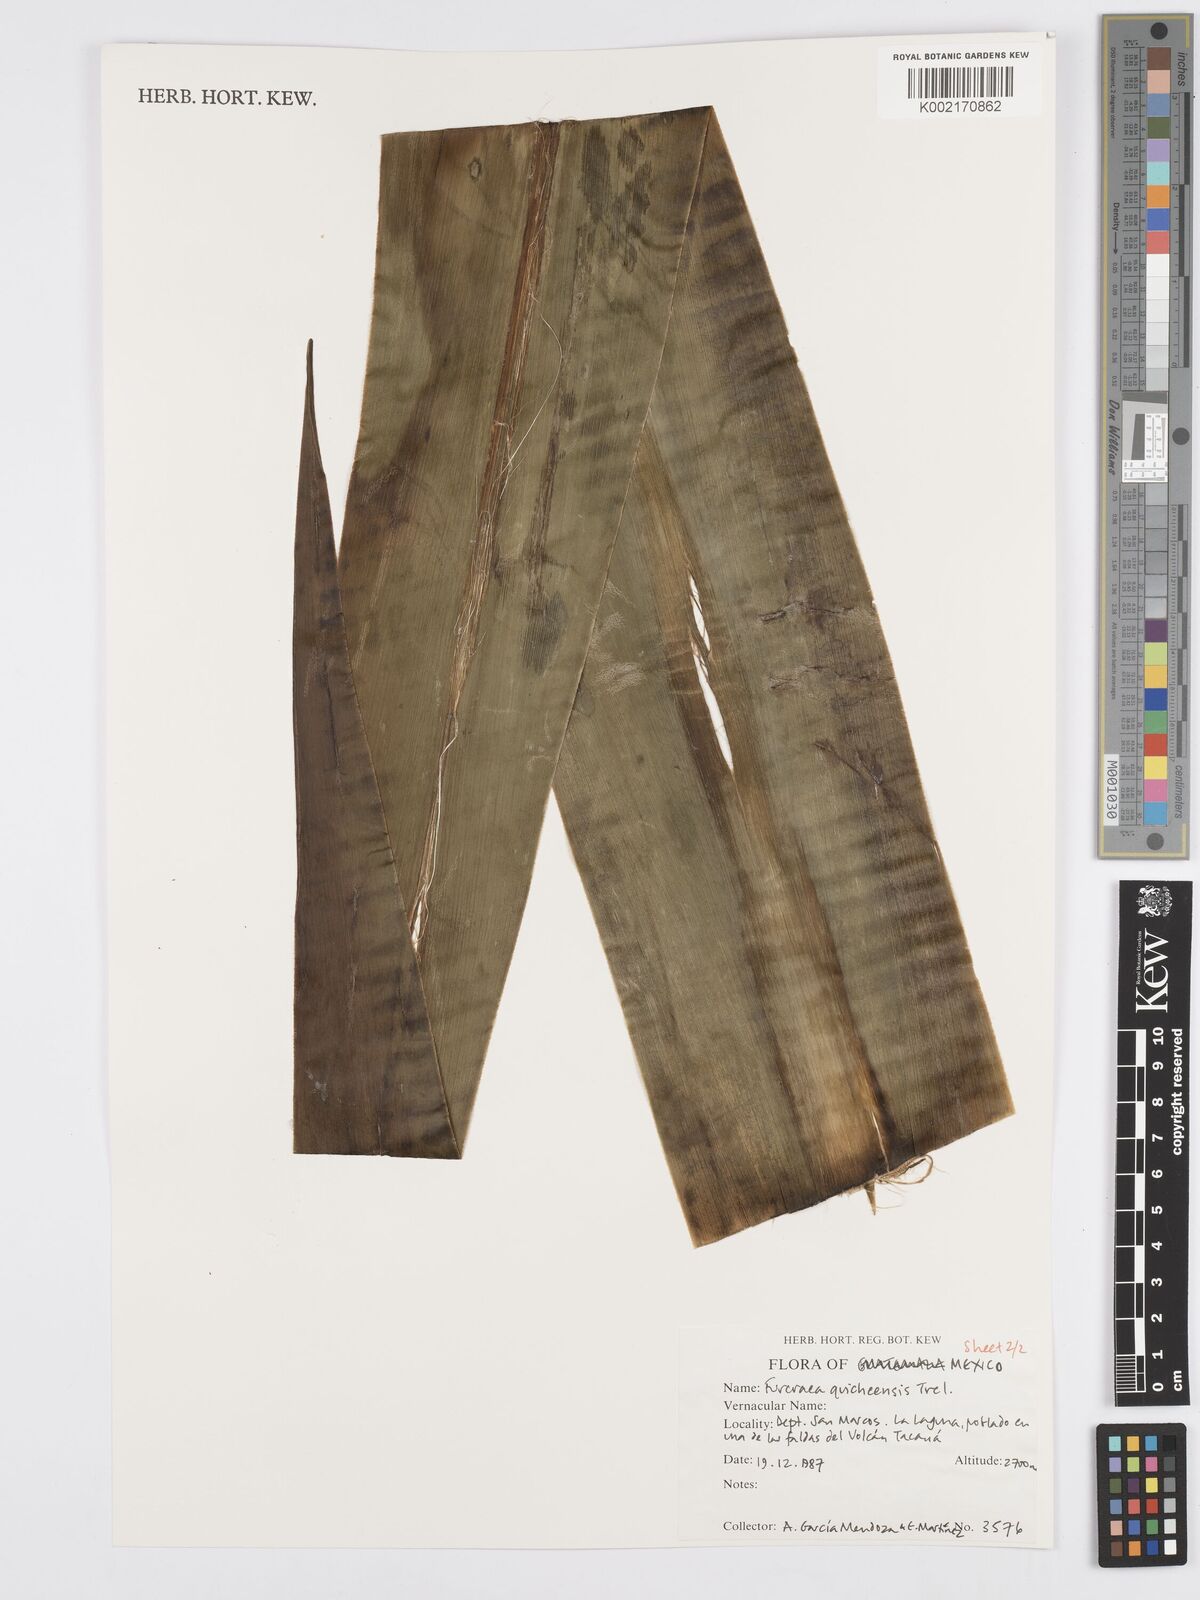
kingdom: Plantae
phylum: Tracheophyta
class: Liliopsida
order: Asparagales
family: Asparagaceae
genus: Furcraea
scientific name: Furcraea quicheensis
